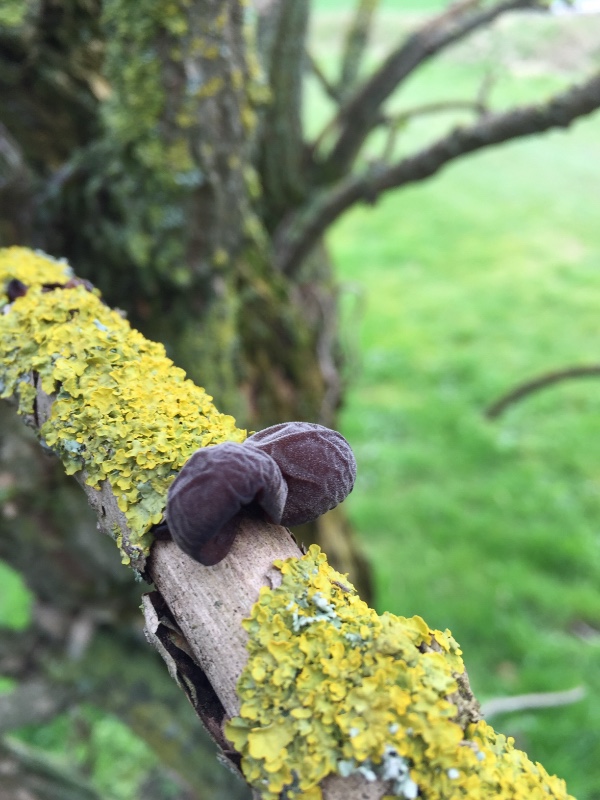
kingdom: Fungi
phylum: Basidiomycota
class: Agaricomycetes
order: Auriculariales
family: Auriculariaceae
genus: Auricularia
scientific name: Auricularia auricula-judae
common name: almindelig judasøre
